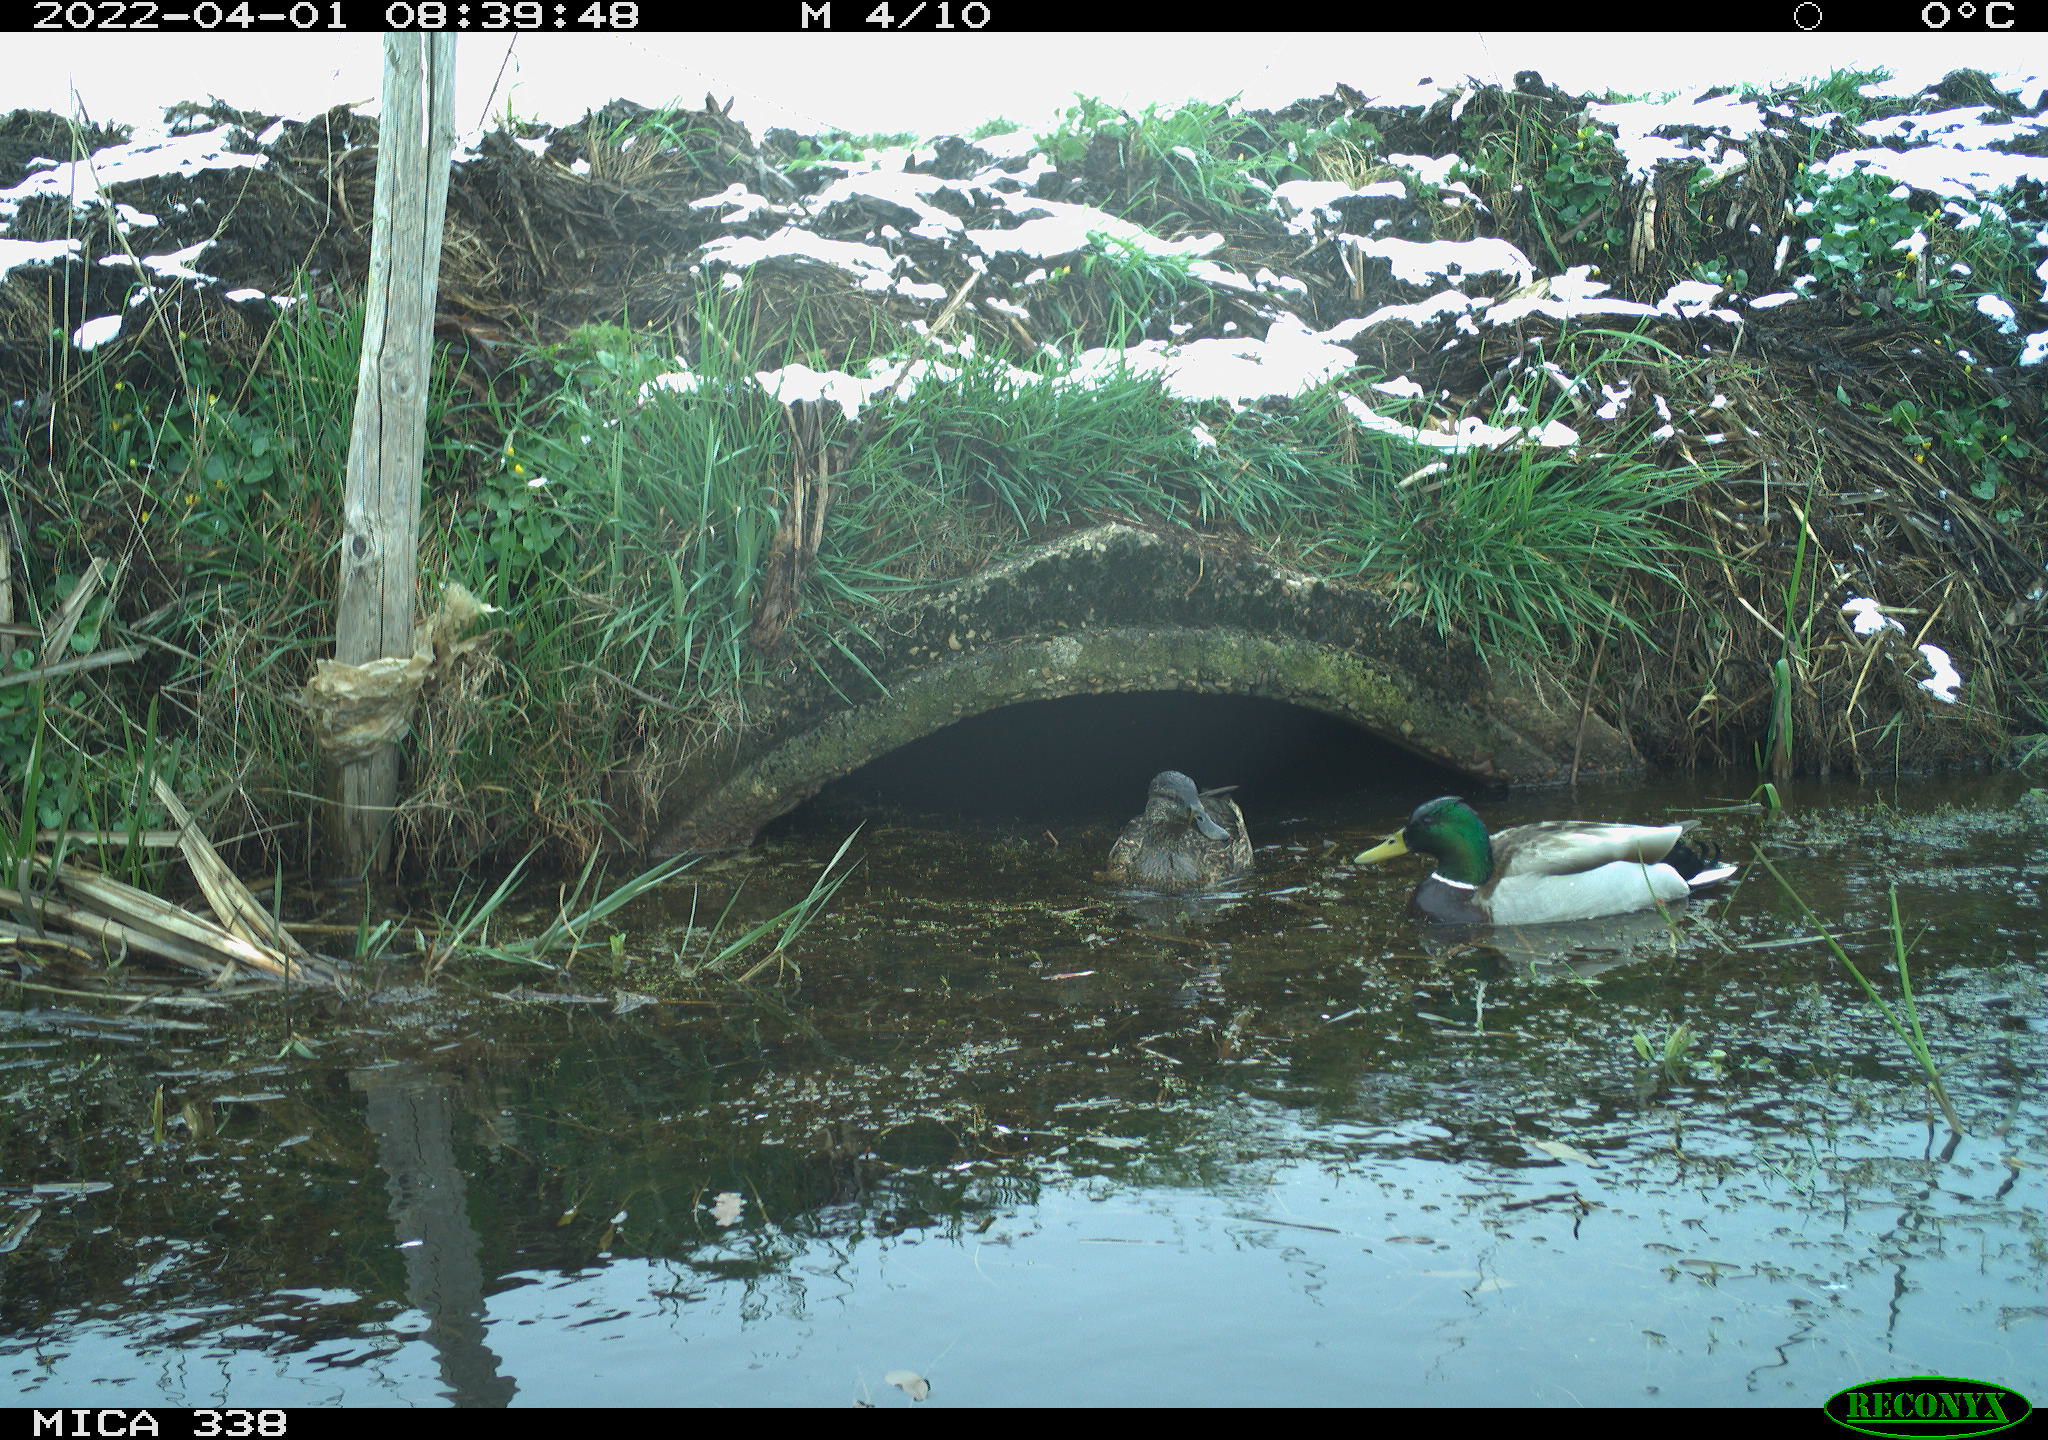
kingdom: Animalia
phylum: Chordata
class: Aves
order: Anseriformes
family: Anatidae
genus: Anas
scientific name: Anas platyrhynchos
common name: Mallard
